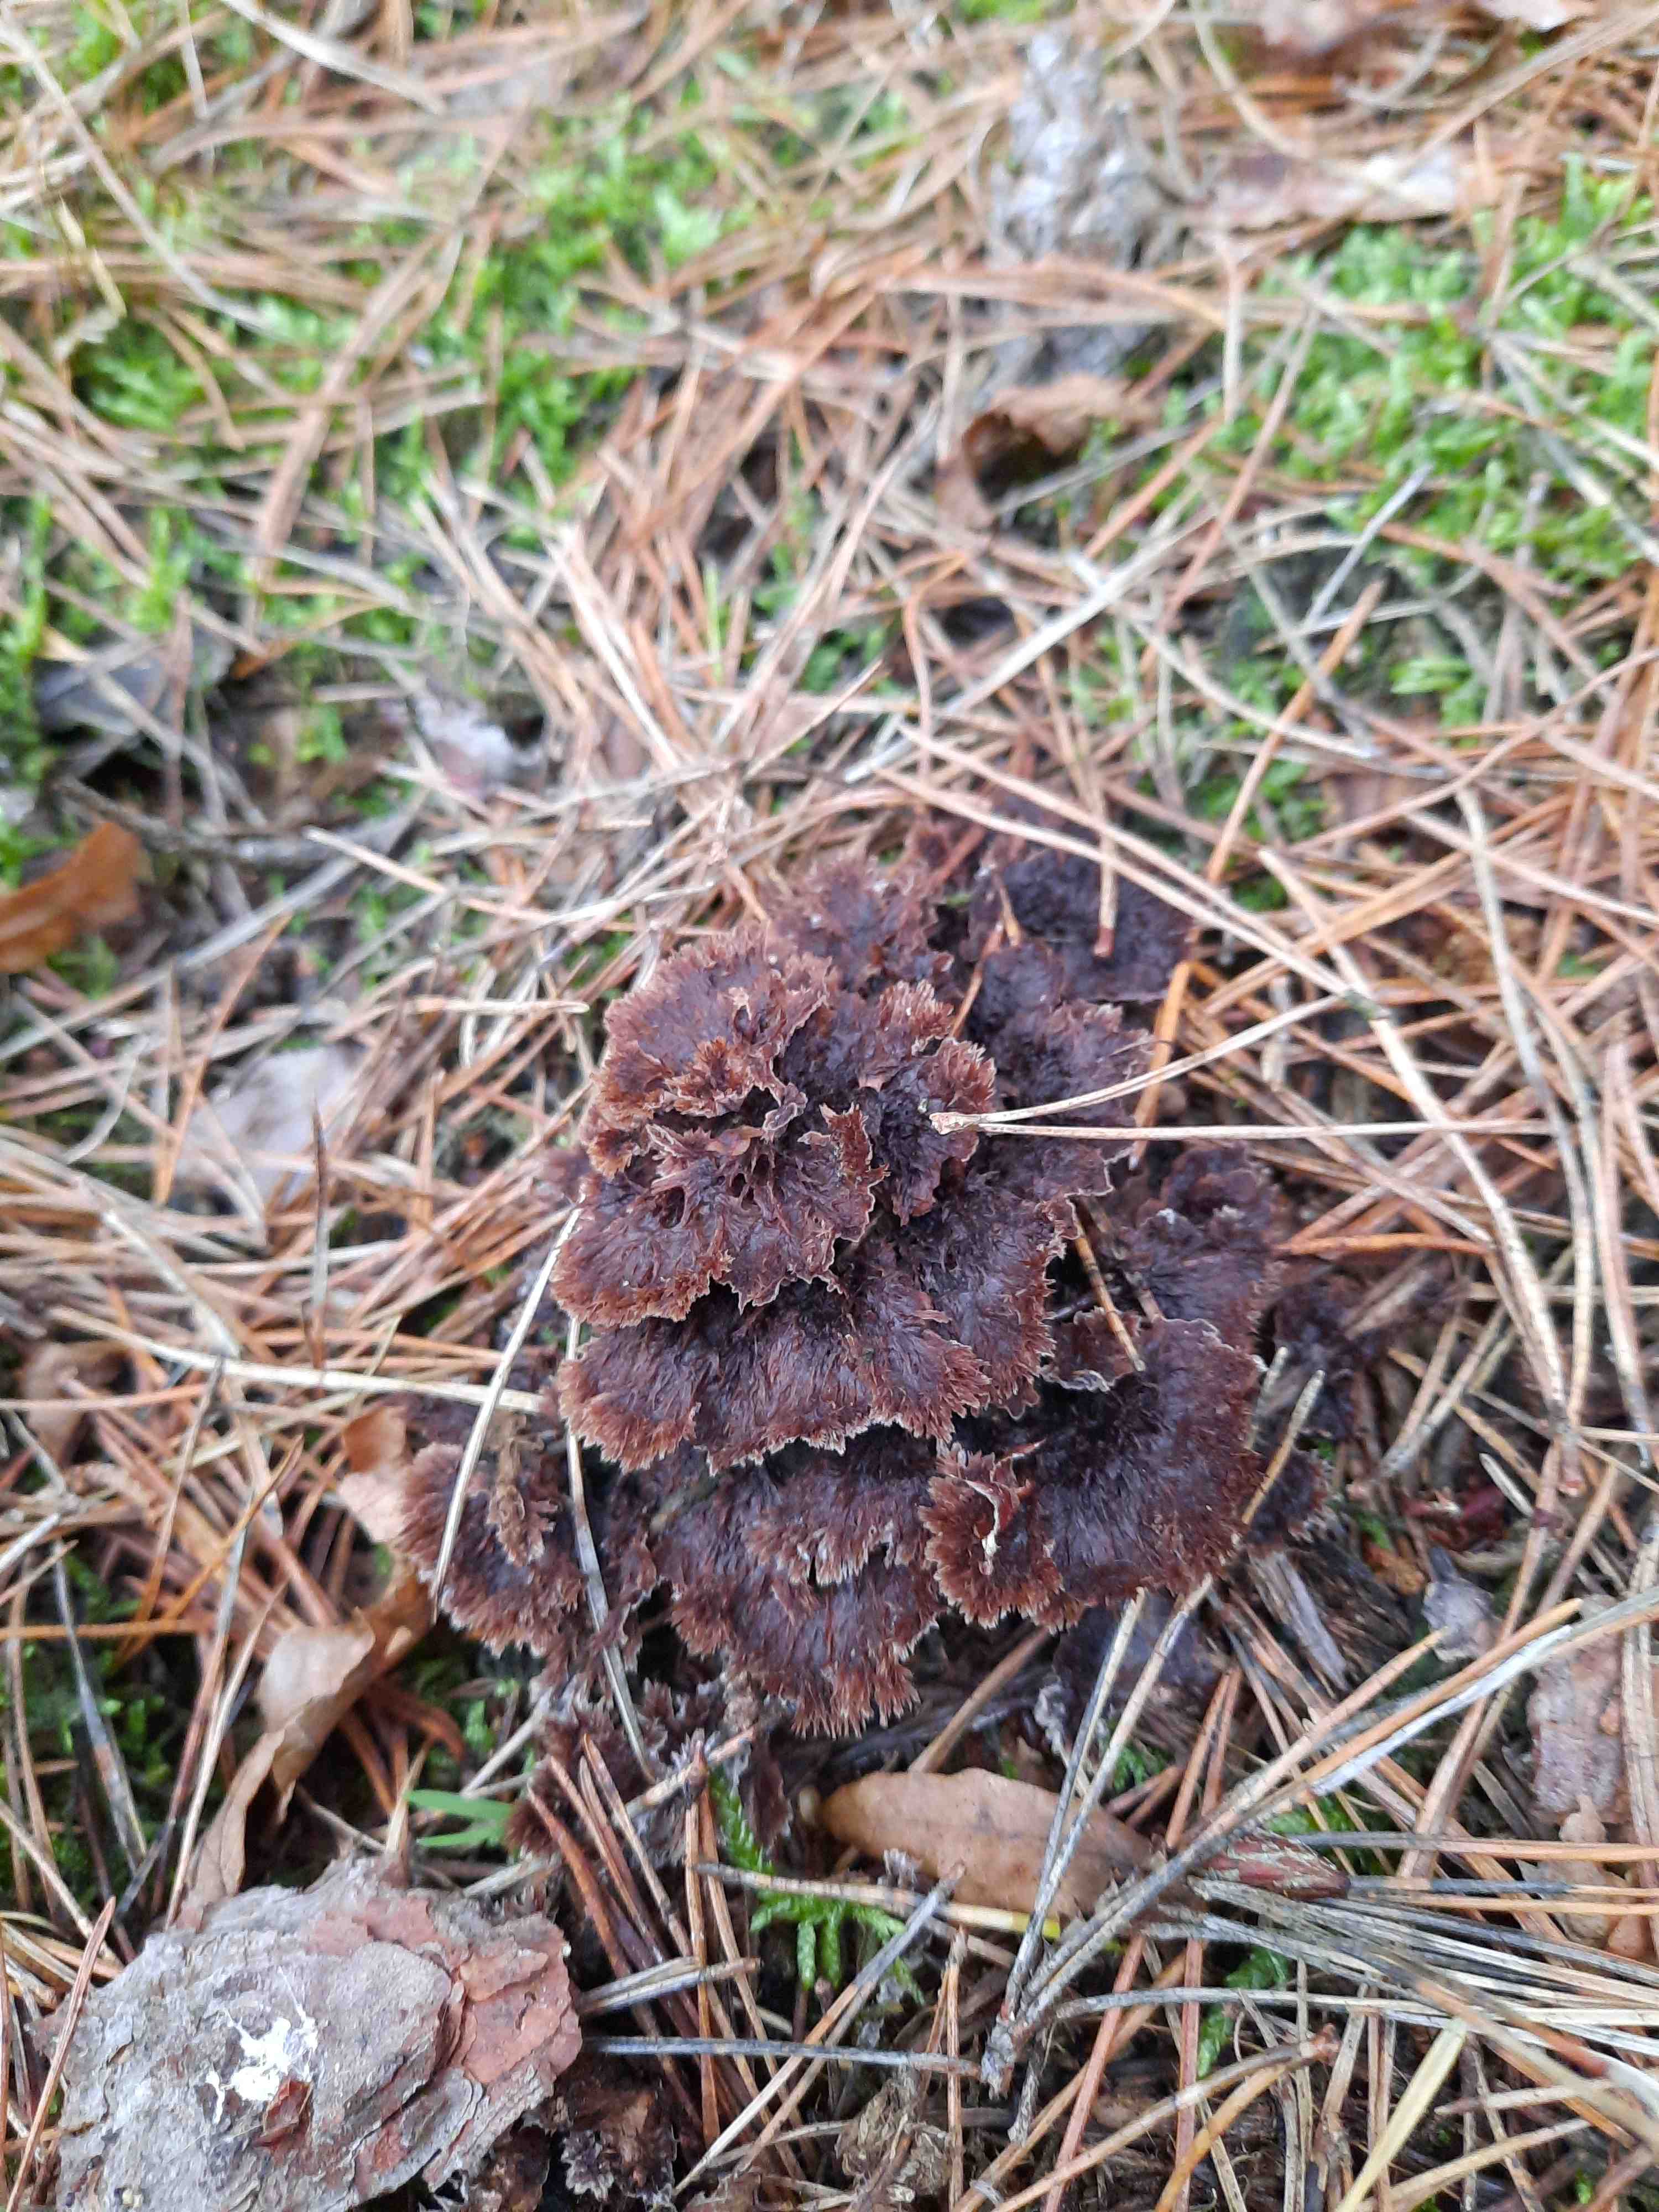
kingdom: Fungi
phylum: Basidiomycota
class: Agaricomycetes
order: Thelephorales
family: Thelephoraceae
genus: Thelephora
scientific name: Thelephora terrestris
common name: fliget frynsesvamp
